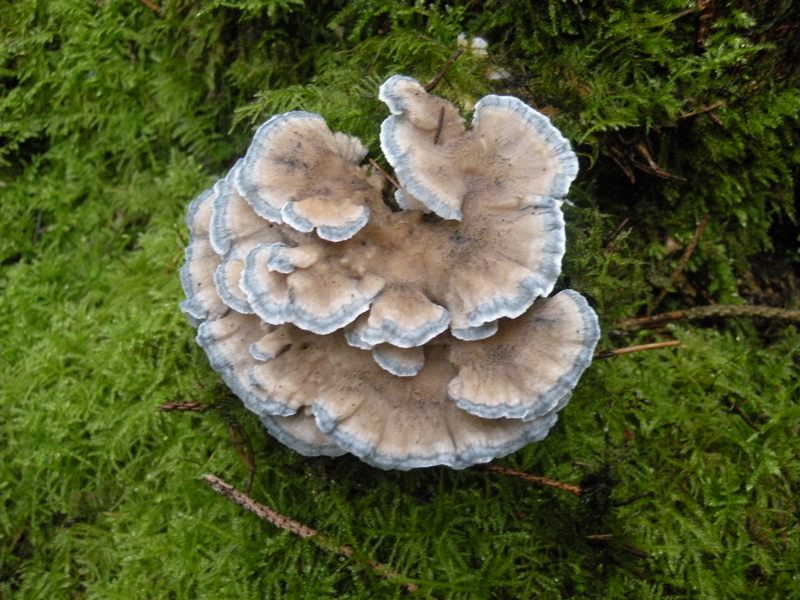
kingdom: Fungi
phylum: Basidiomycota
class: Agaricomycetes
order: Polyporales
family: Polyporaceae
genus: Cyanosporus
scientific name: Cyanosporus caesius
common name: blålig kødporesvamp
